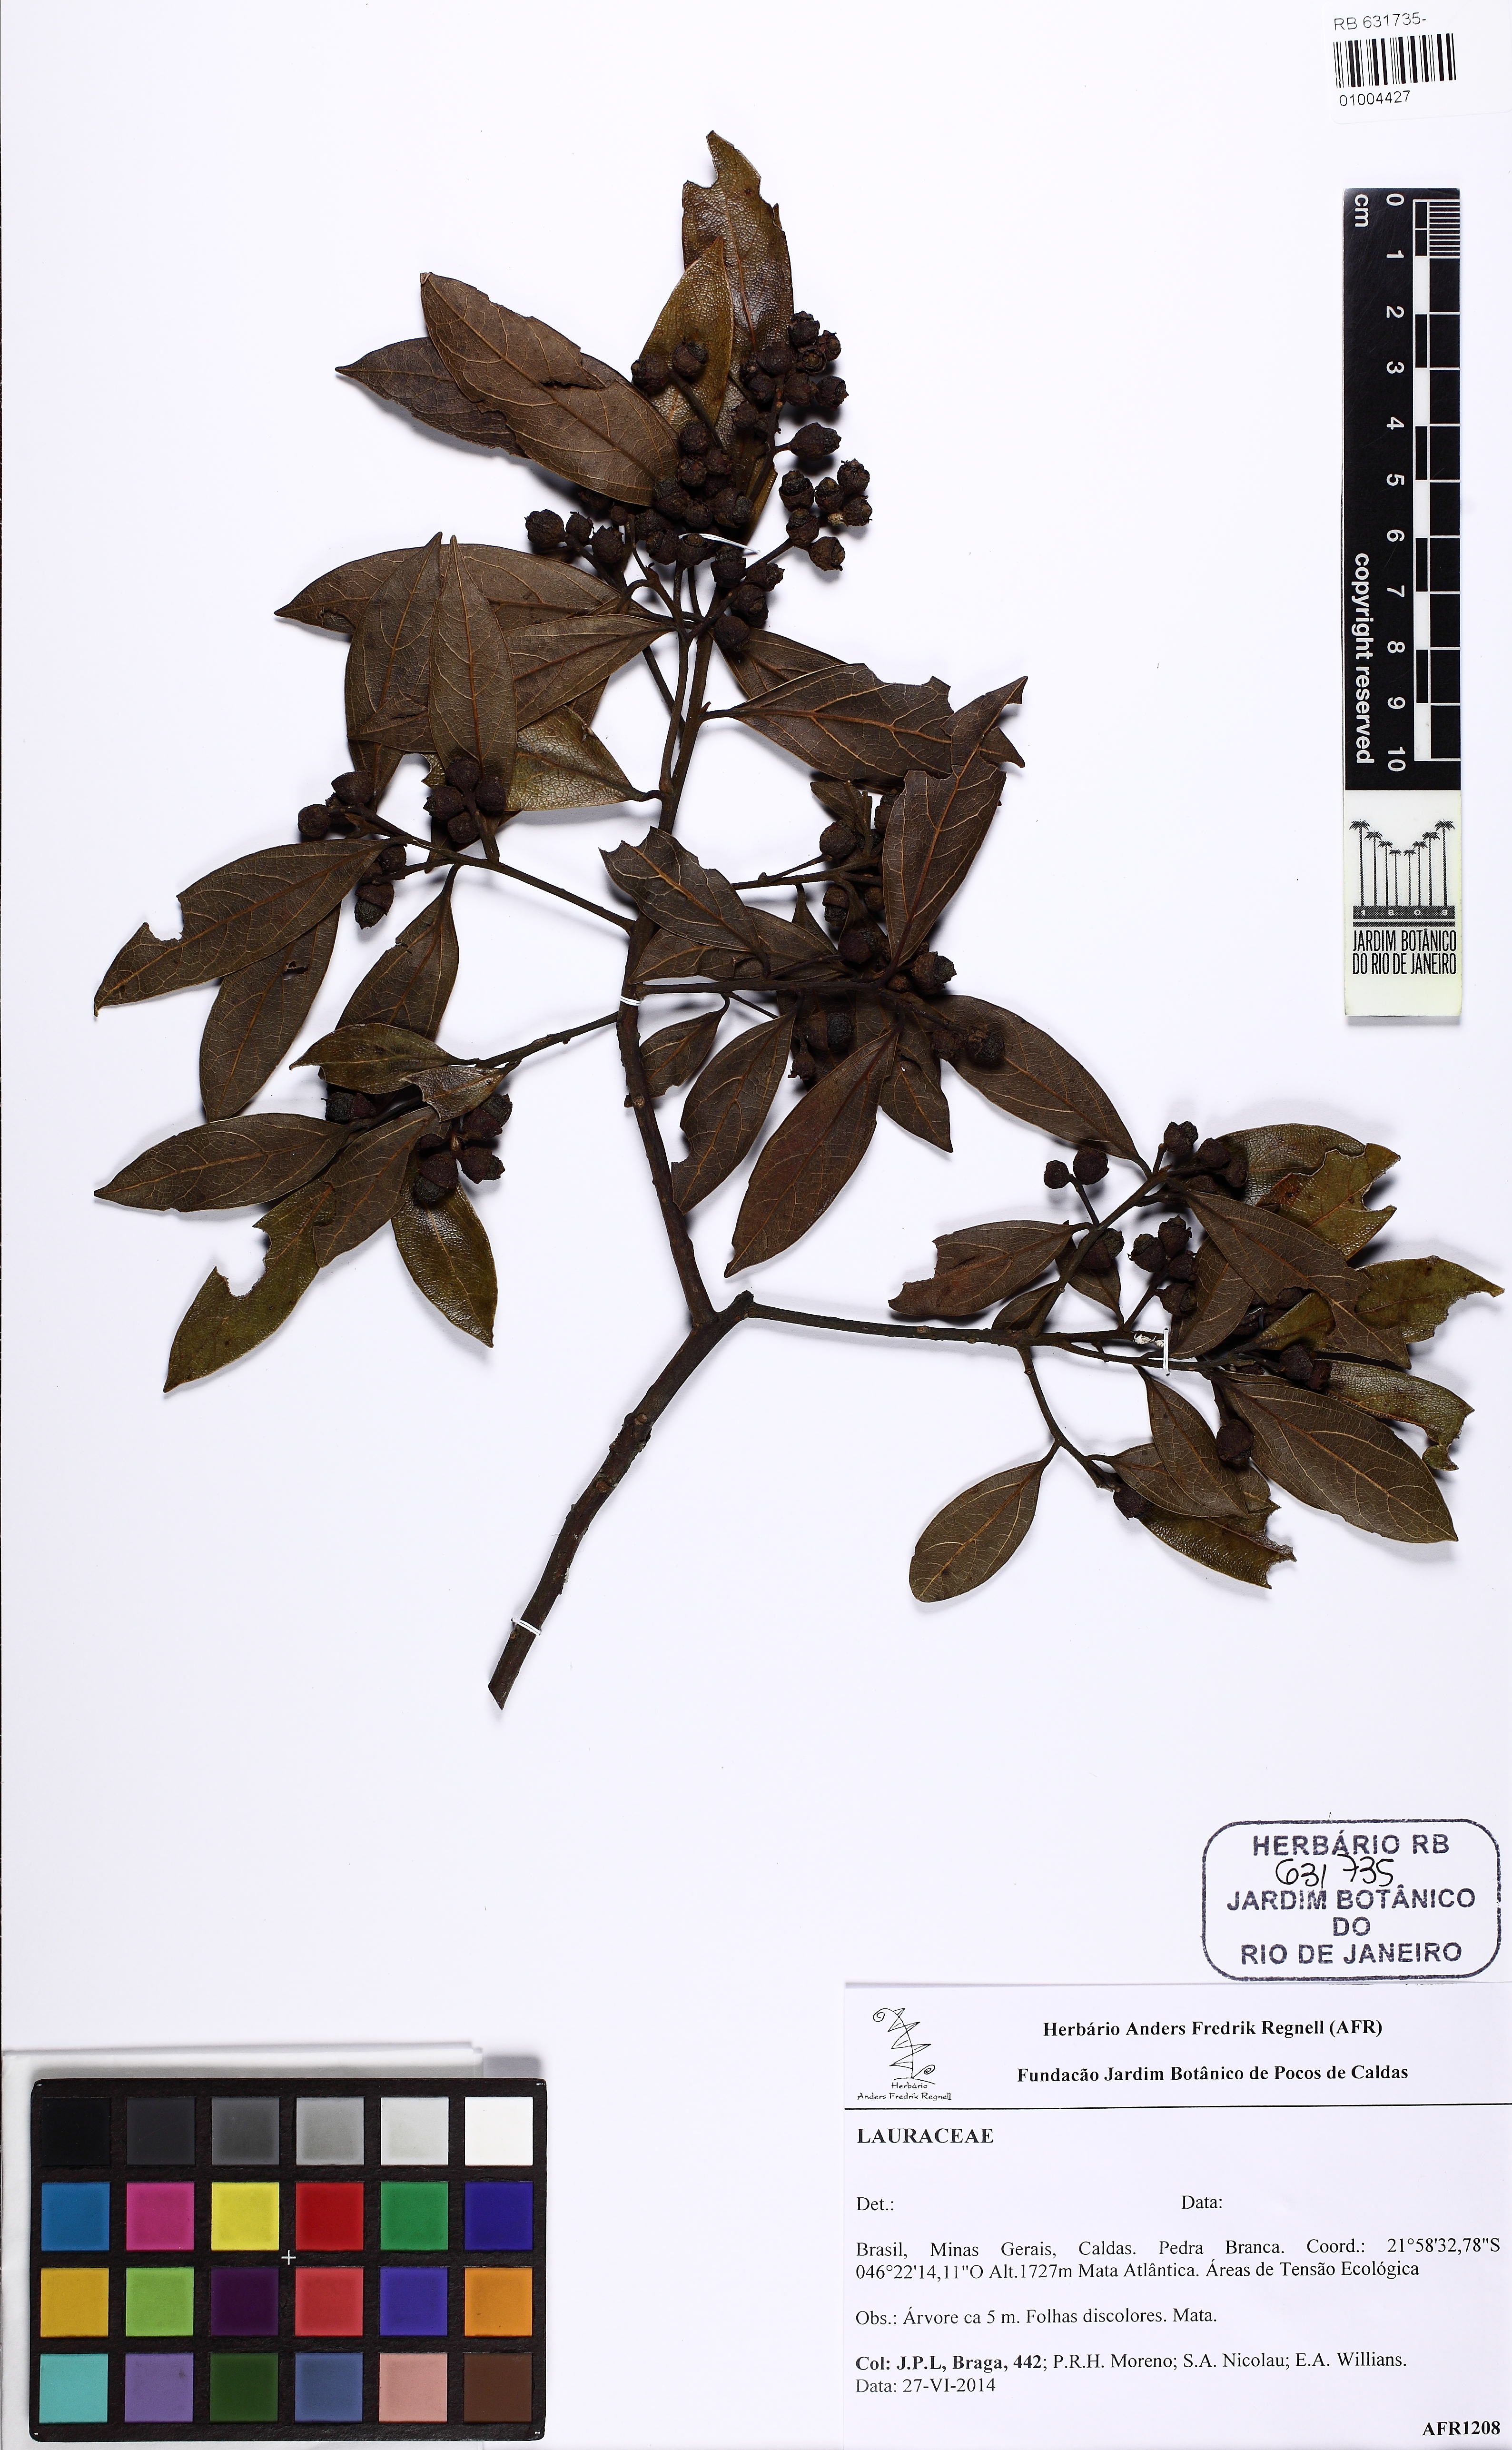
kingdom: Plantae
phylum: Tracheophyta
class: Magnoliopsida
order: Laurales
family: Lauraceae
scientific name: Lauraceae
